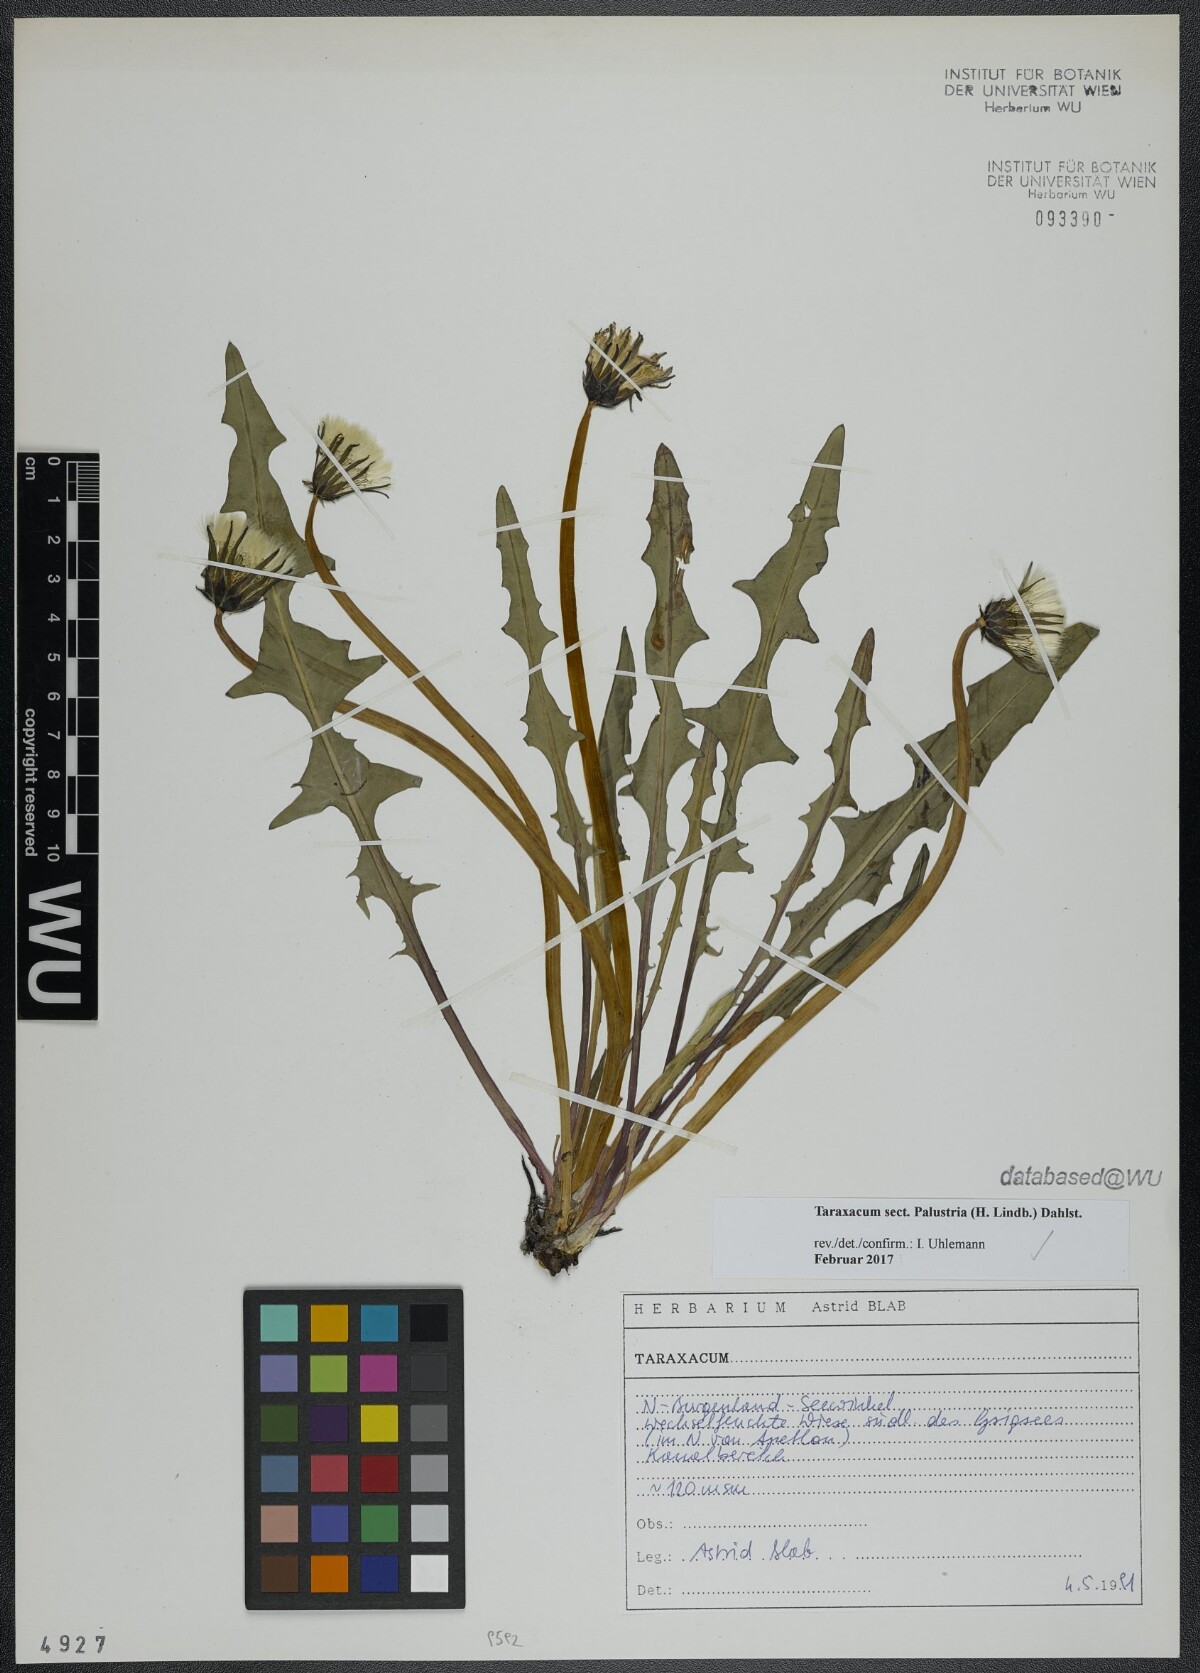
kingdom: Plantae
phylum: Tracheophyta
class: Magnoliopsida
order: Asterales
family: Asteraceae
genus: Taraxacum
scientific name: Taraxacum
